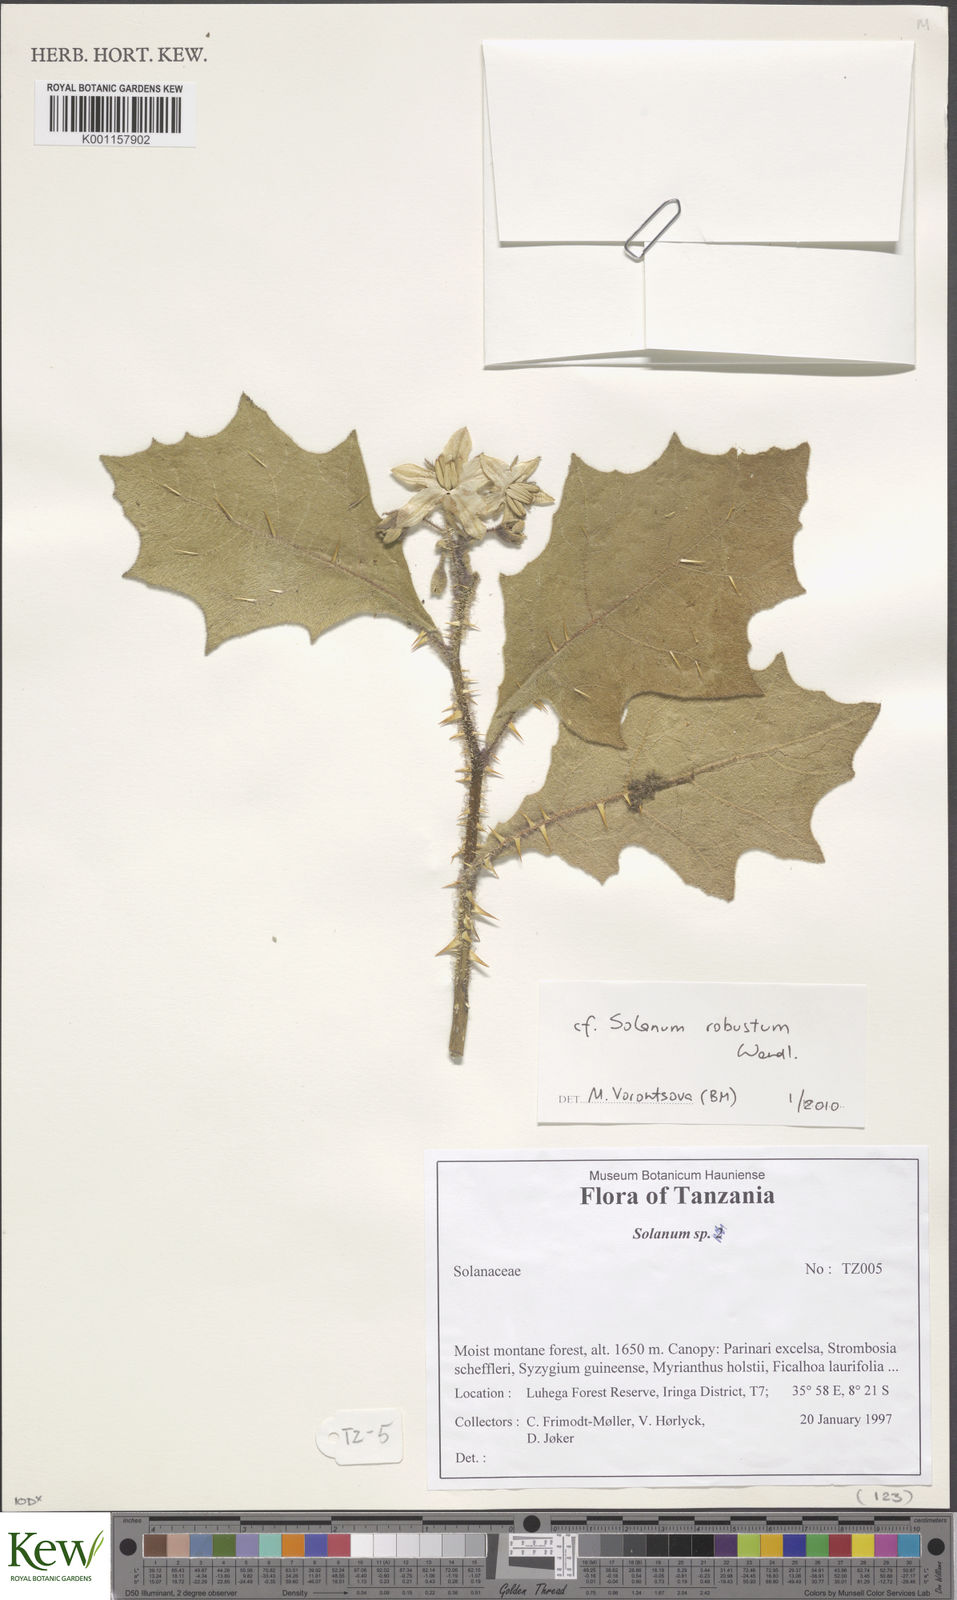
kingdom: Plantae
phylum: Tracheophyta
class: Magnoliopsida
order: Solanales
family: Solanaceae
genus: Solanum
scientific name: Solanum robustum
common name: Shrubby nightshade
